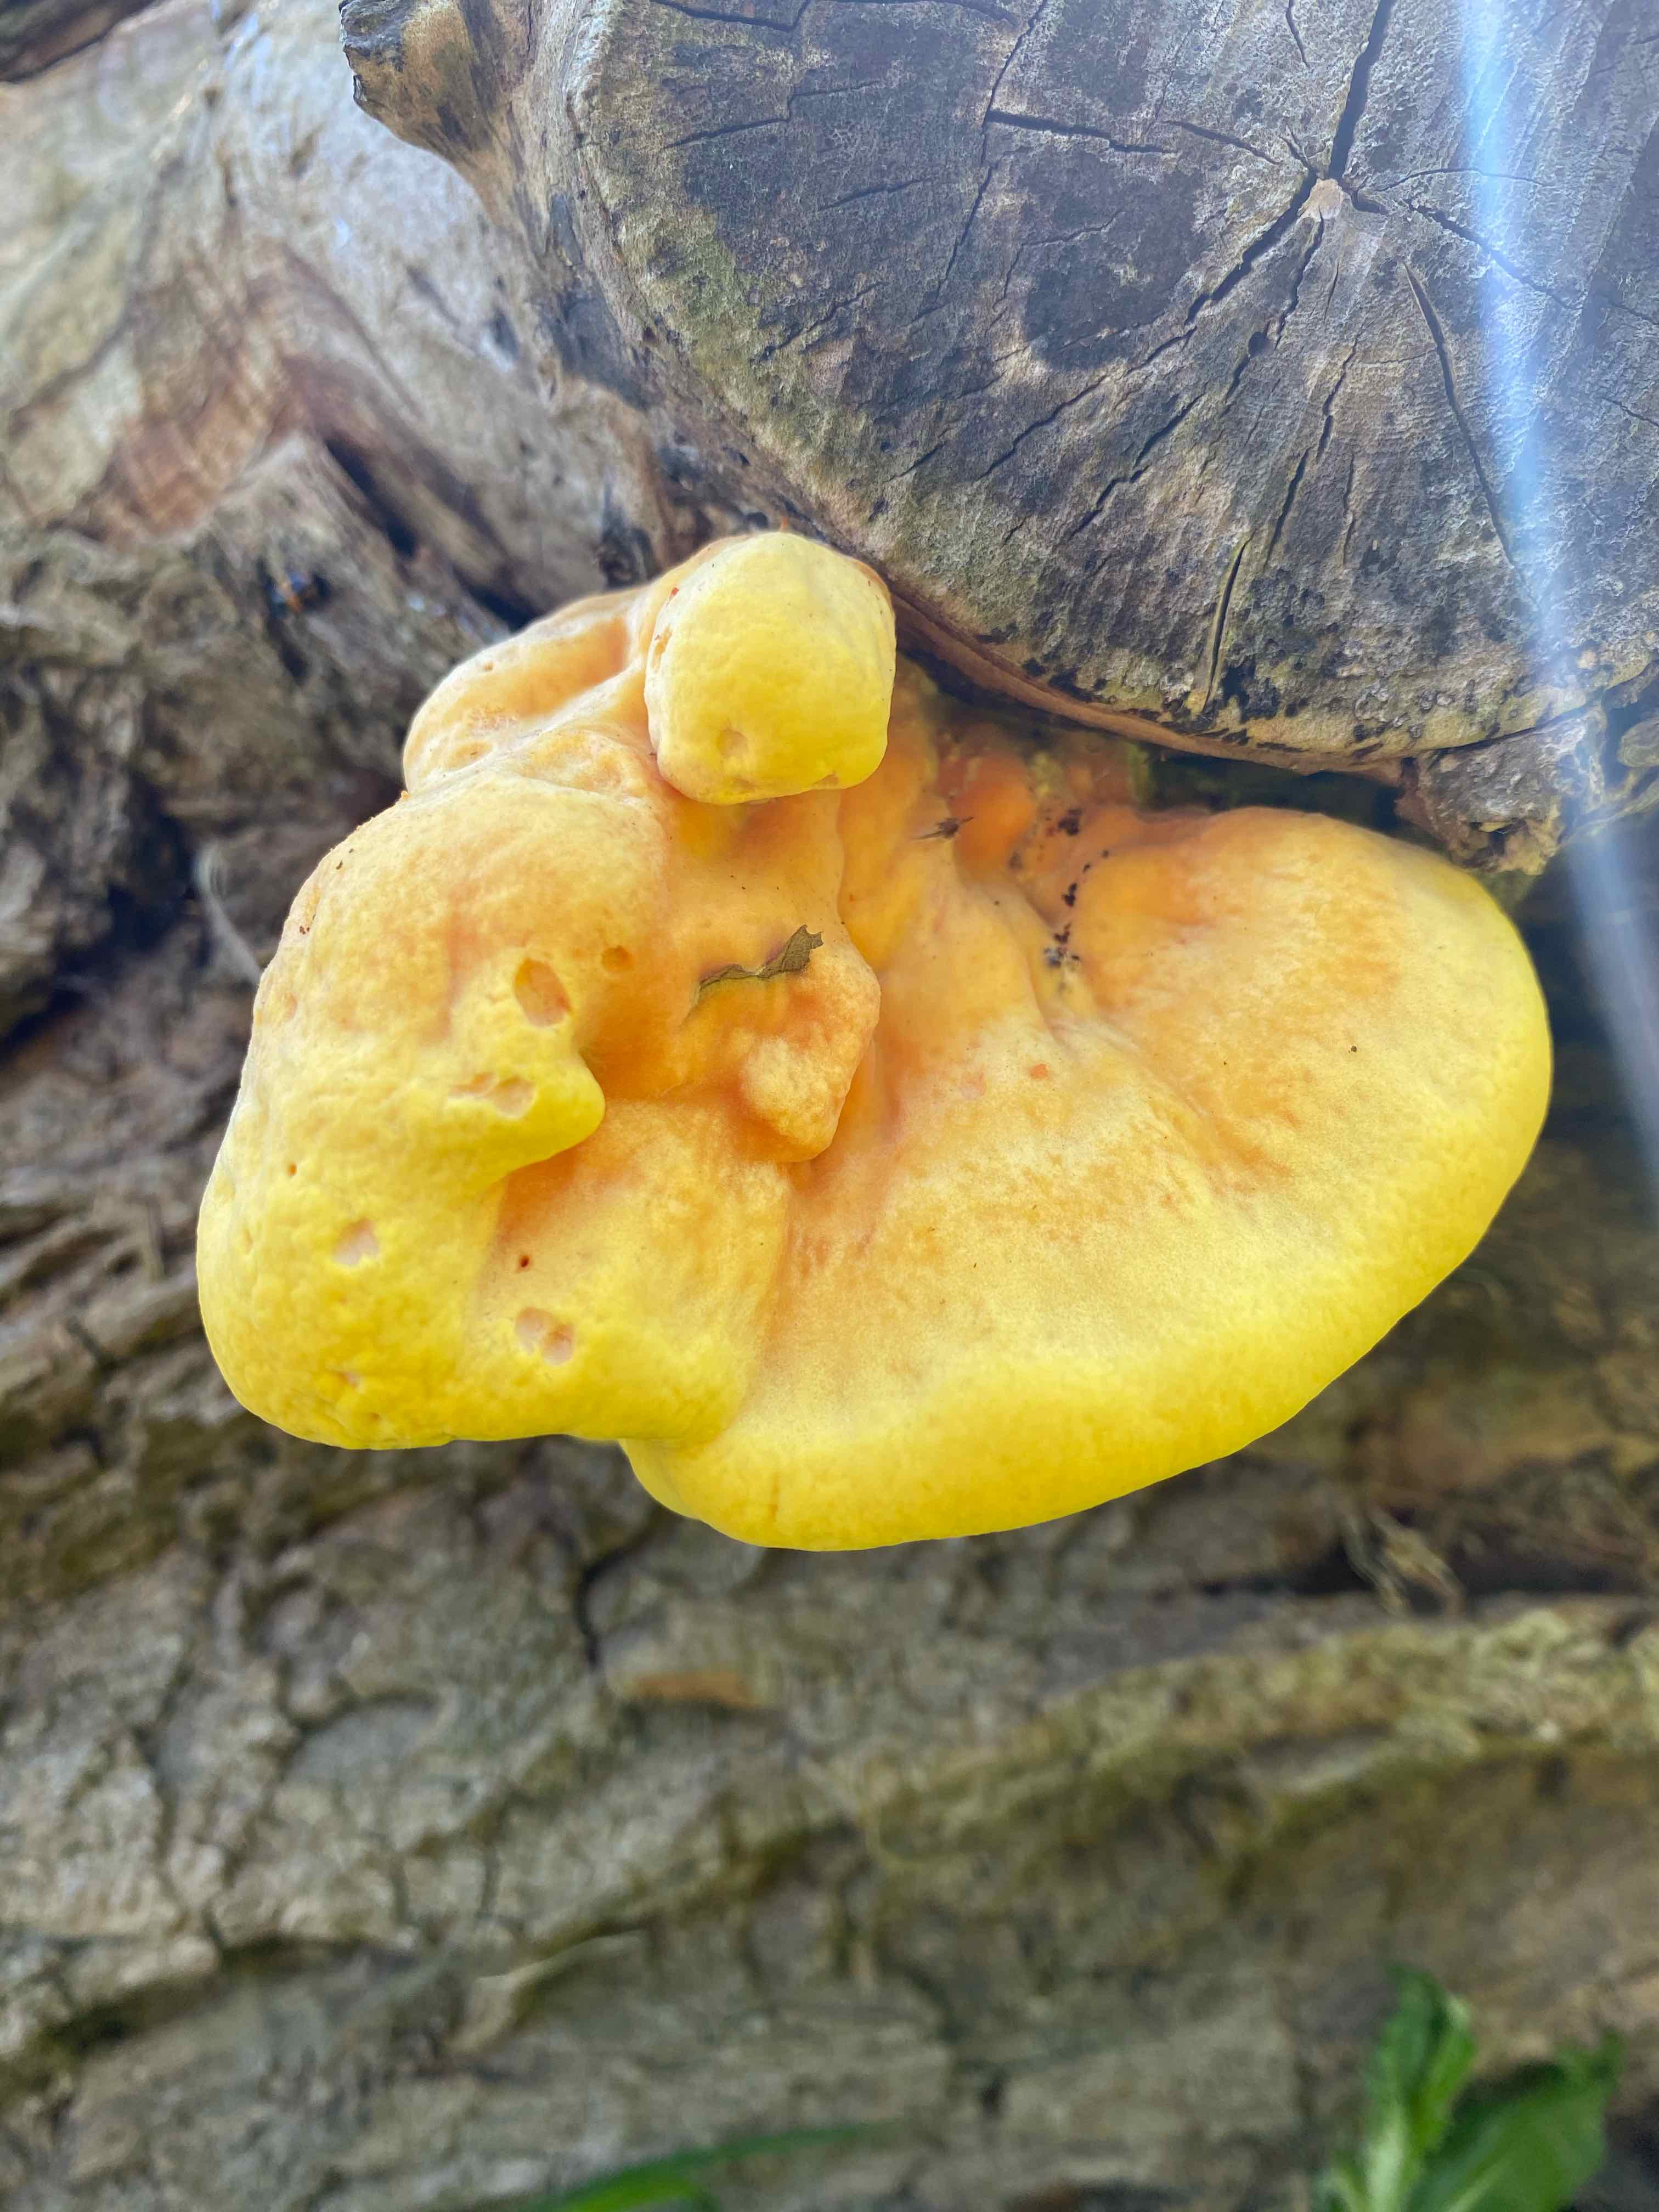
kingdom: Fungi
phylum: Basidiomycota
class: Agaricomycetes
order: Polyporales
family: Laetiporaceae
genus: Laetiporus
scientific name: Laetiporus sulphureus
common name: svovlporesvamp
